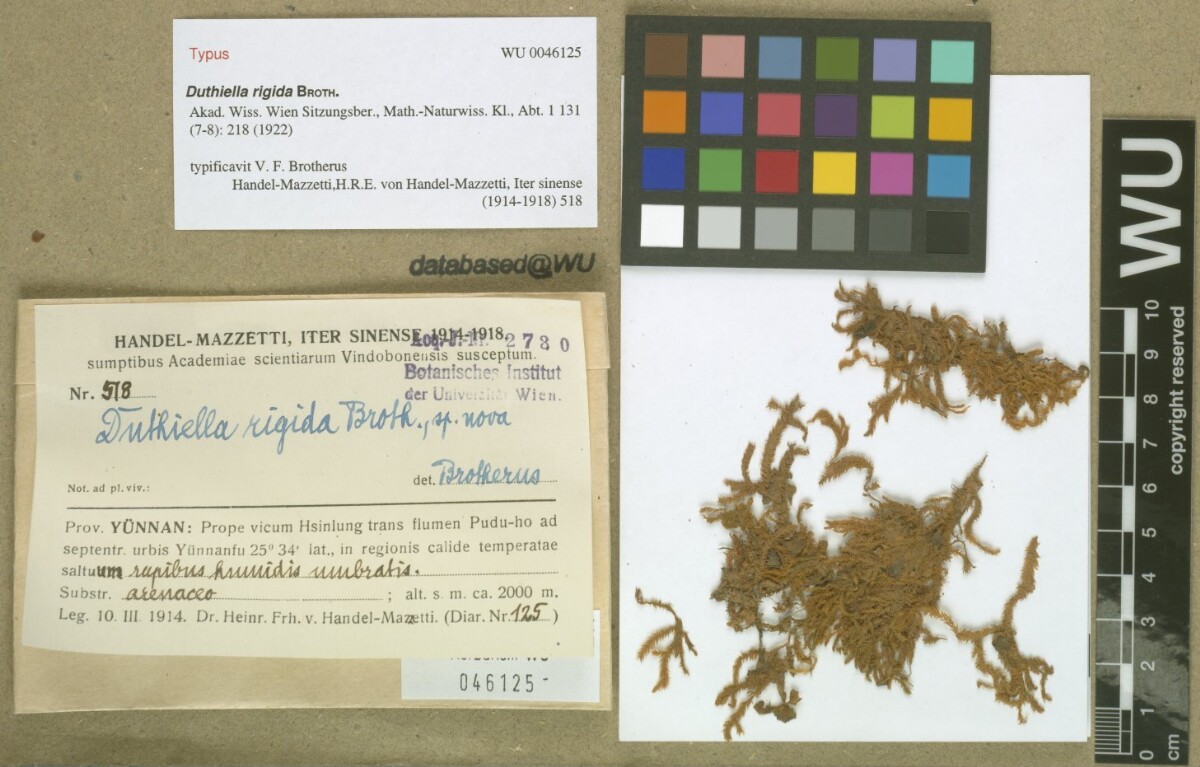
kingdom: Plantae
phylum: Bryophyta
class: Bryopsida
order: Hypnales
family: Meteoriaceae
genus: Duthiella
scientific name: Duthiella flaccida
